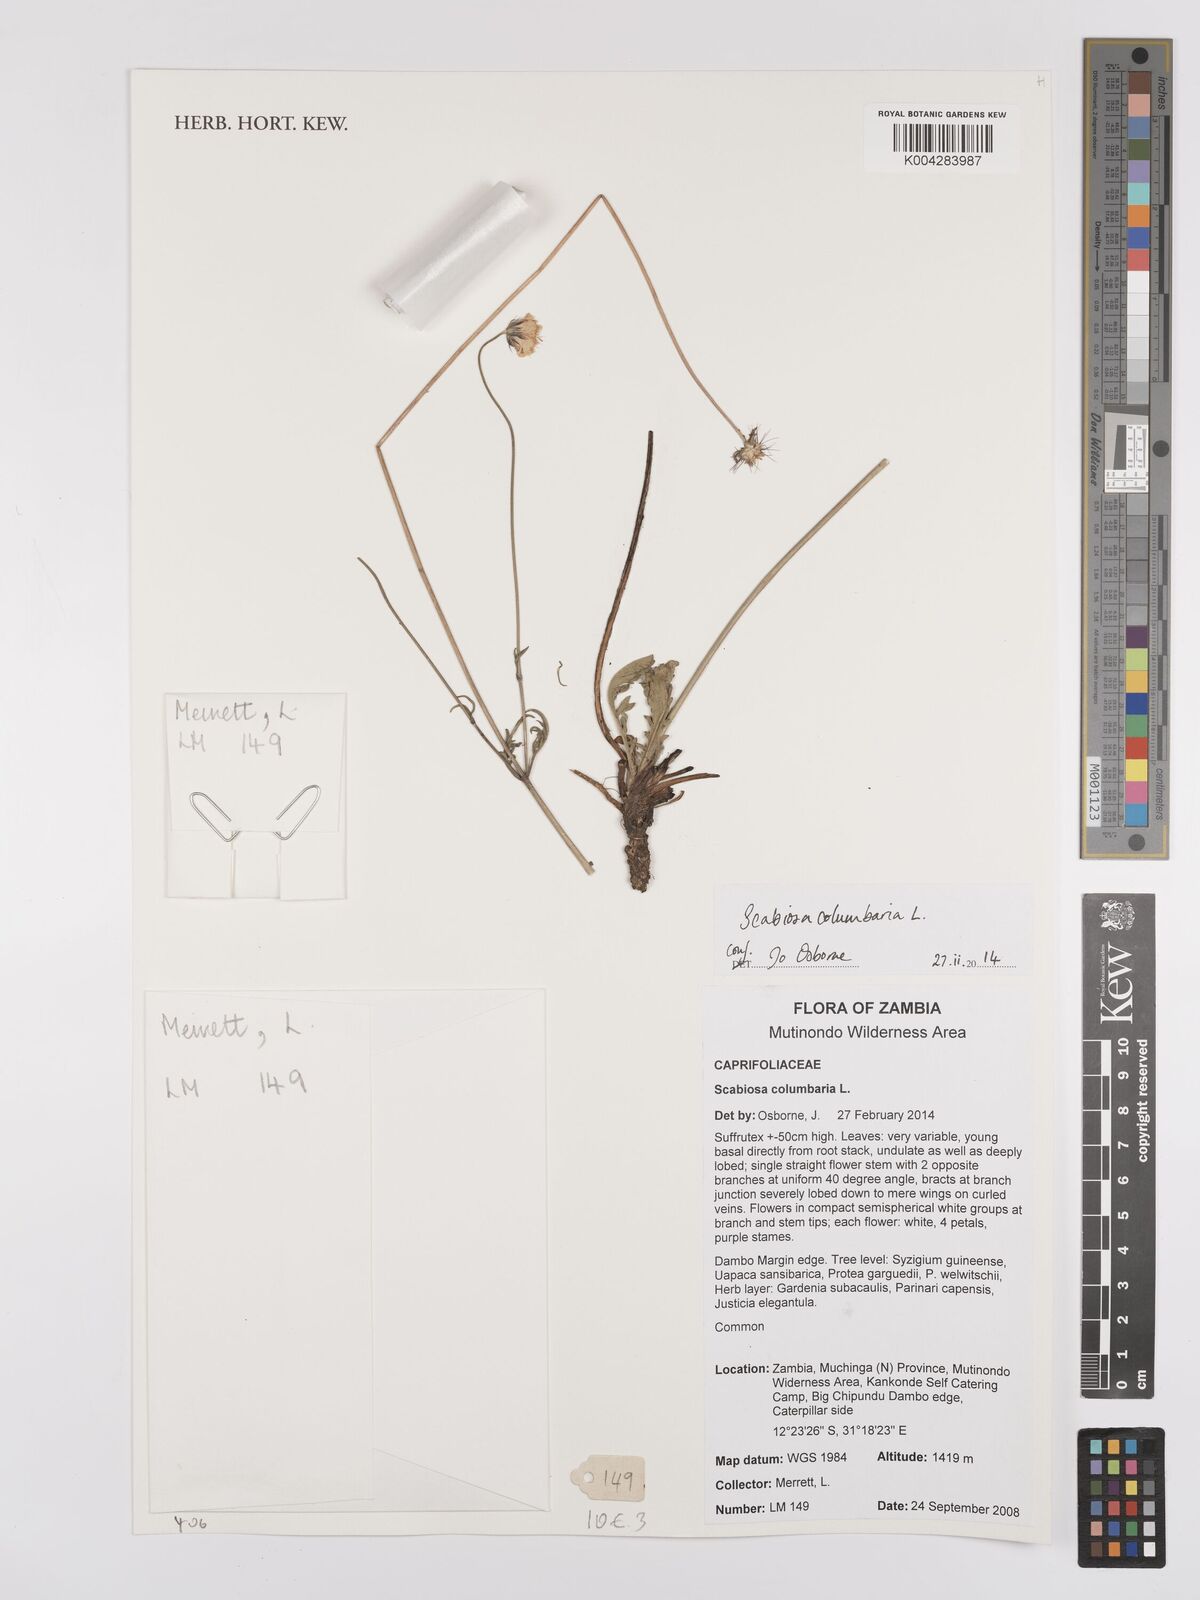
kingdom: Plantae
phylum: Tracheophyta
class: Magnoliopsida
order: Dipsacales
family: Caprifoliaceae
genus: Scabiosa
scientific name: Scabiosa austroafricana
